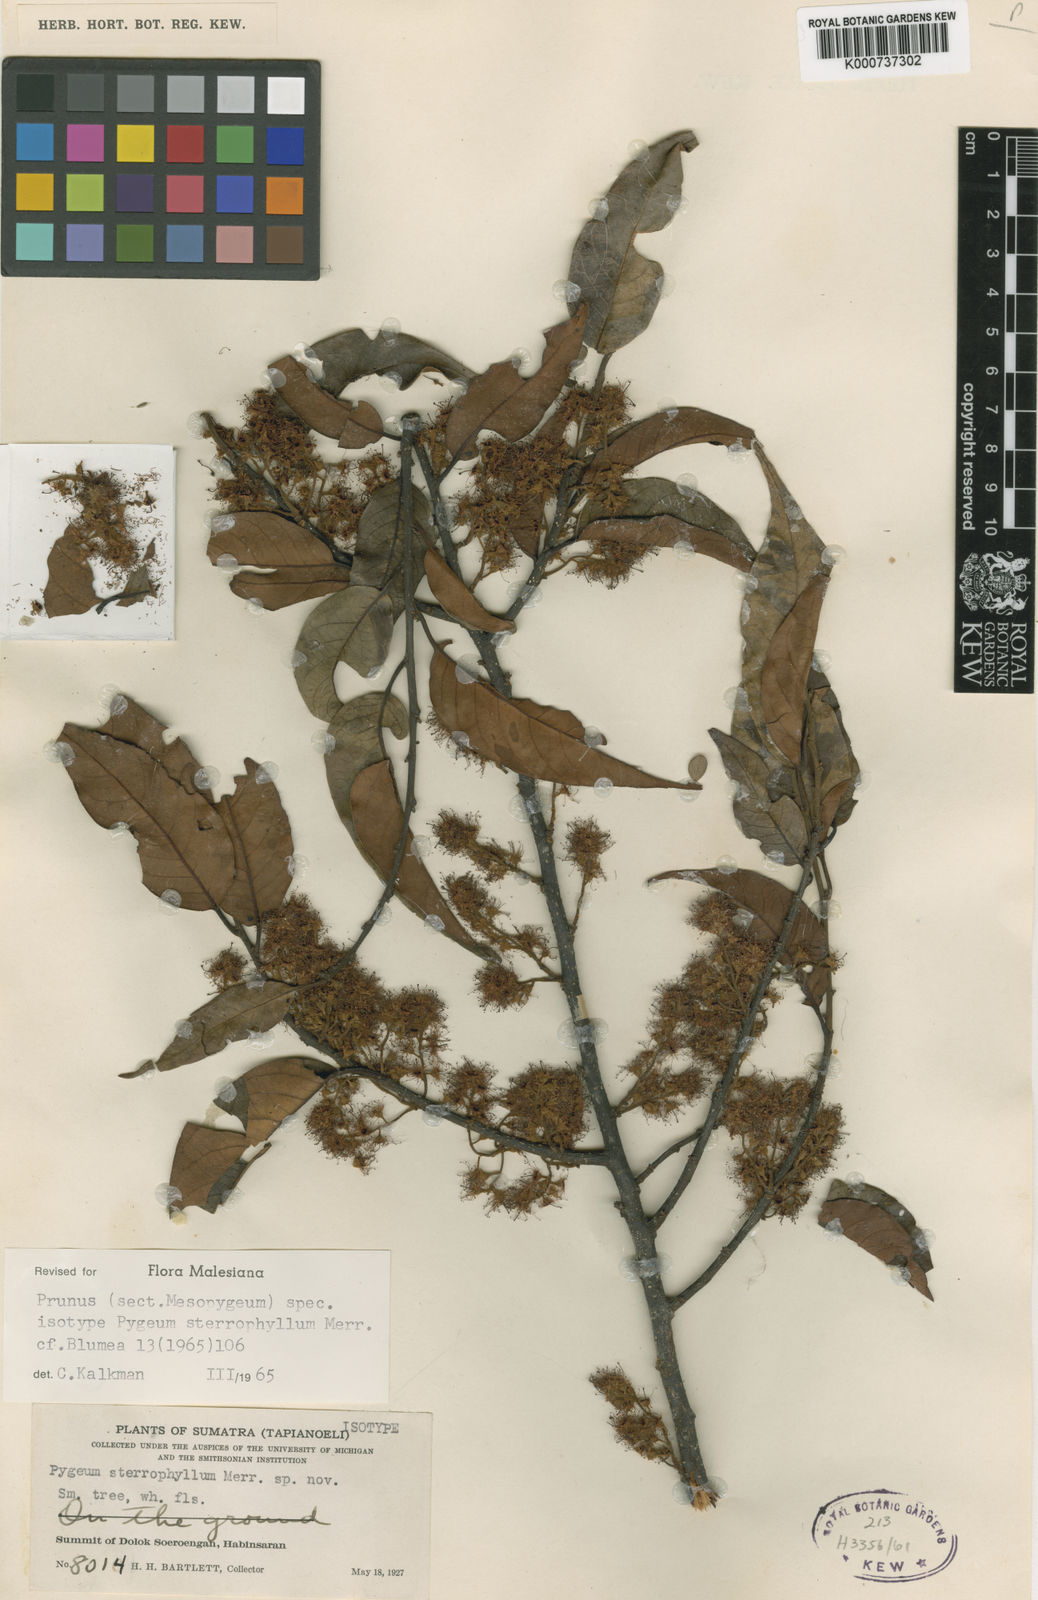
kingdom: Plantae
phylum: Tracheophyta
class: Magnoliopsida
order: Rosales
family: Rosaceae
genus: Prunus
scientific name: Prunus Pygeum sterrophyllum
